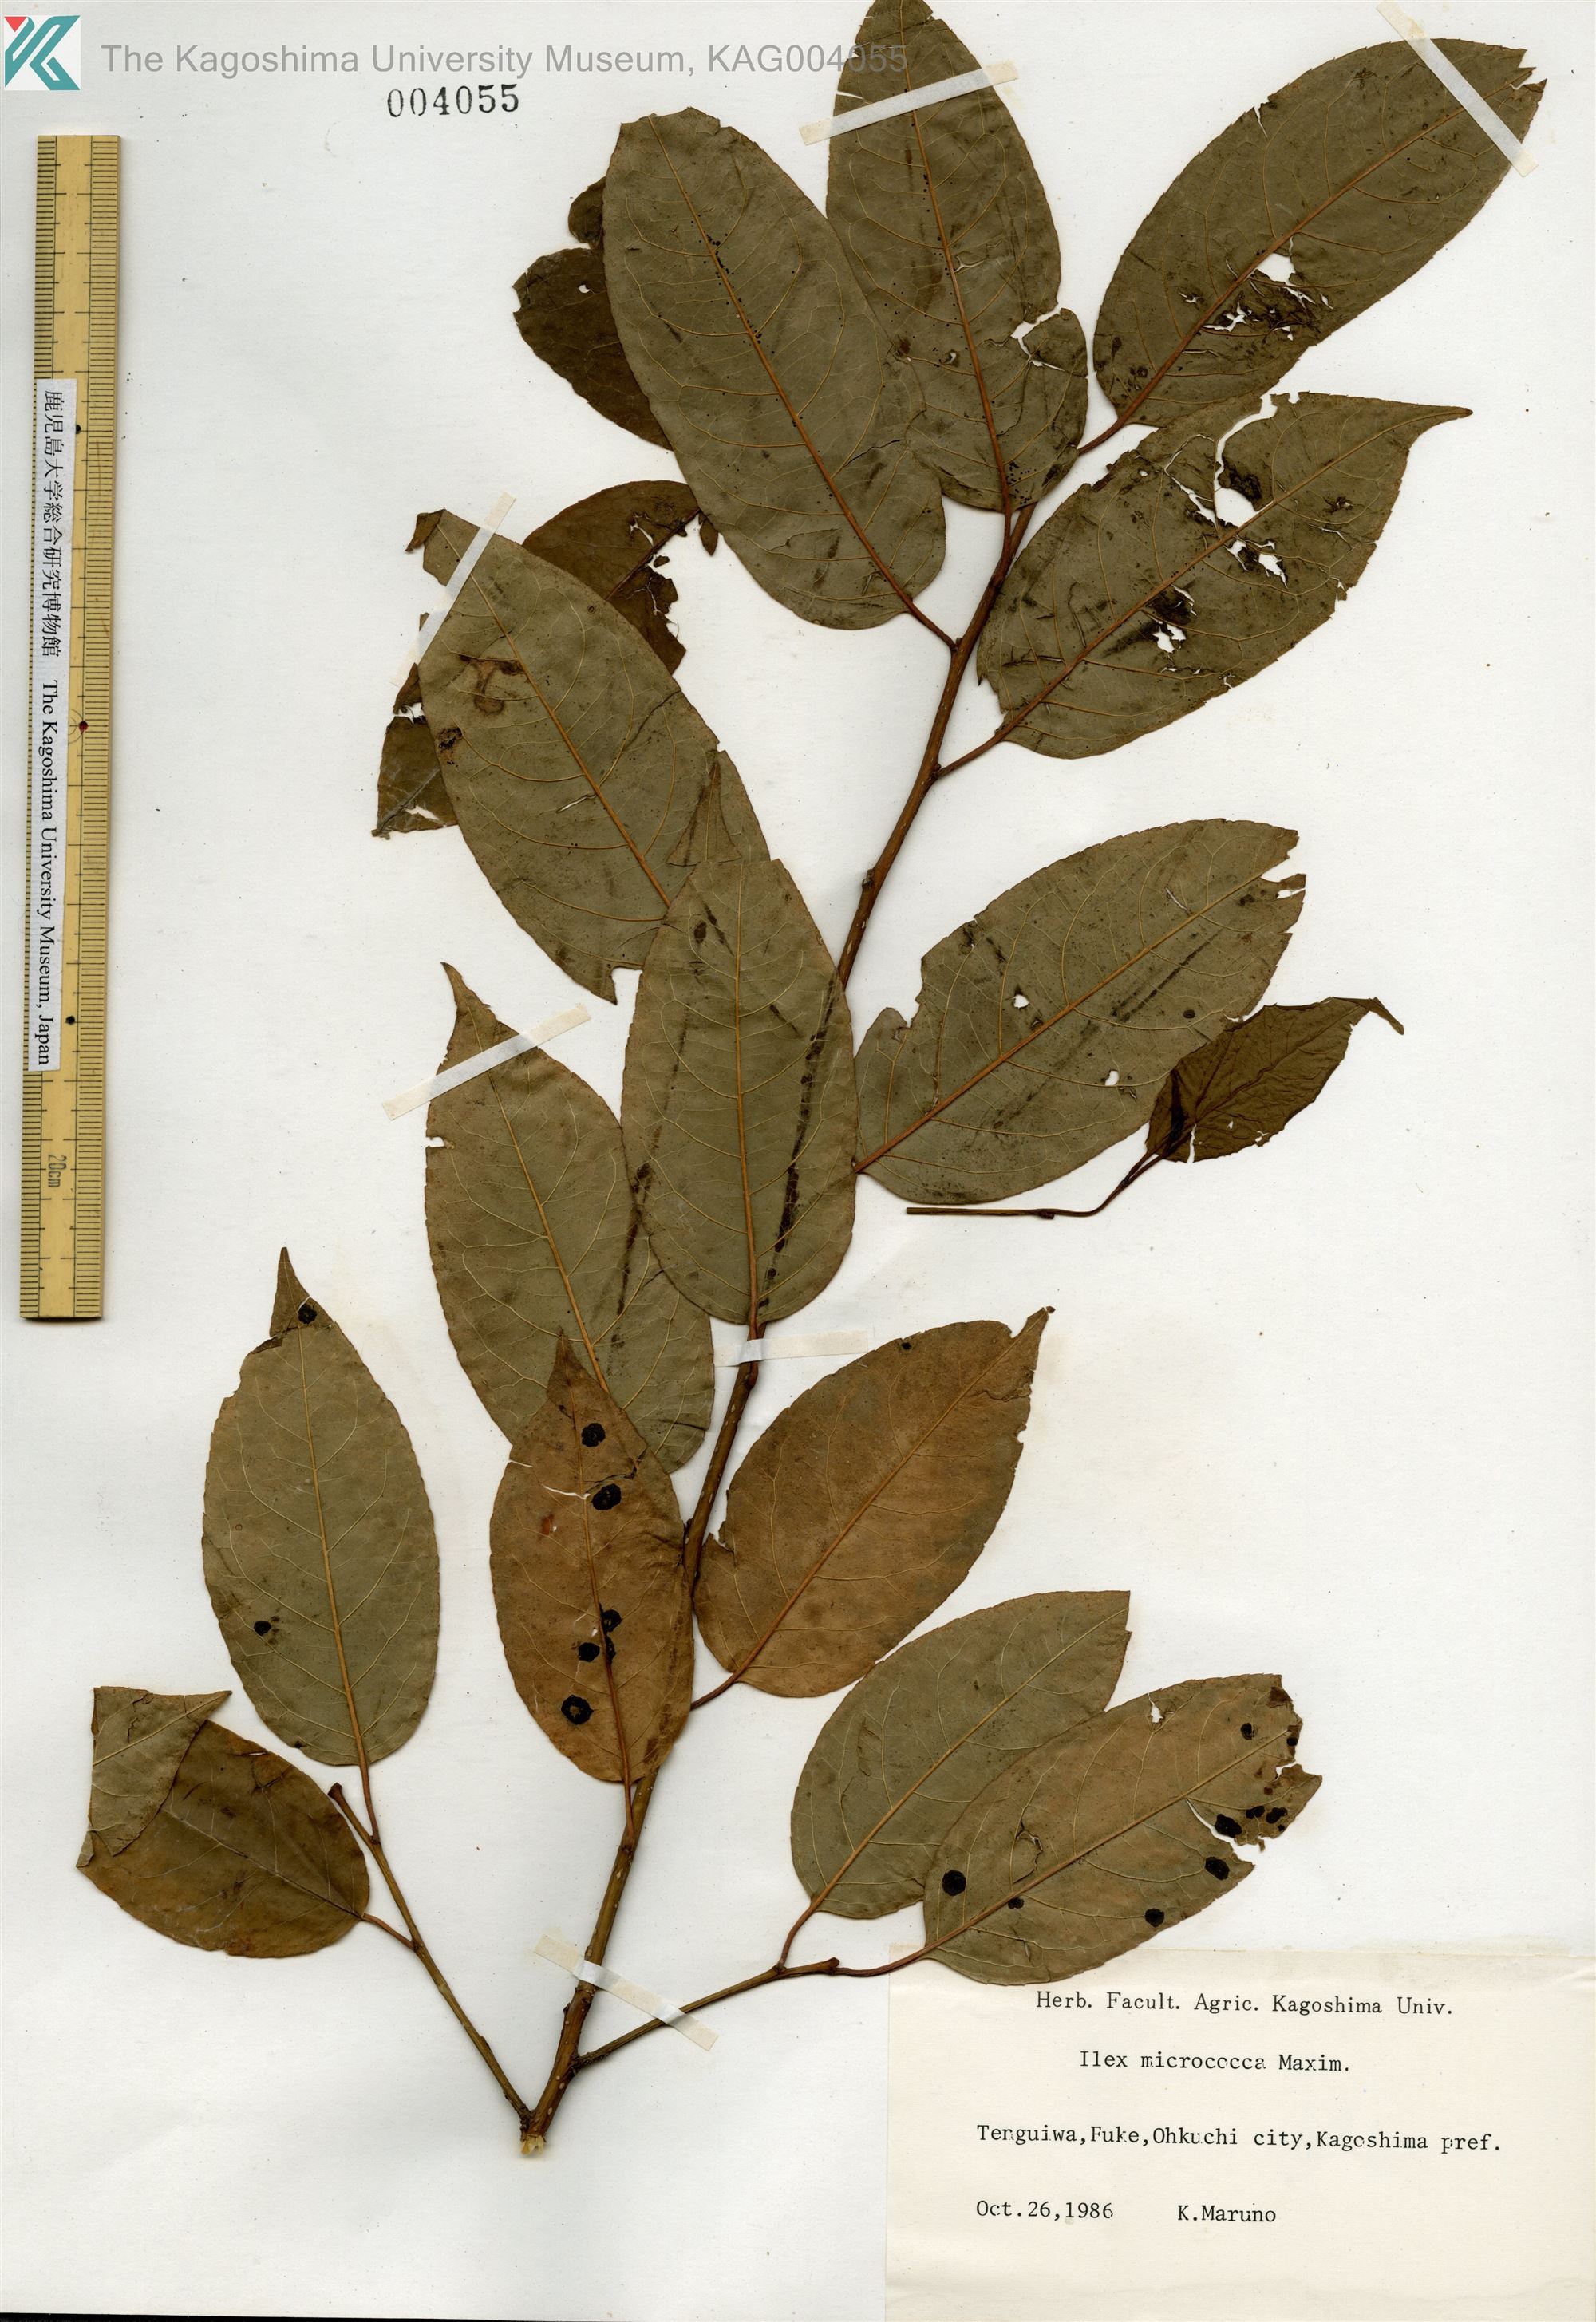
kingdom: Plantae
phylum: Tracheophyta
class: Magnoliopsida
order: Aquifoliales
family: Aquifoliaceae
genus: Ilex
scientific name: Ilex rotunda
